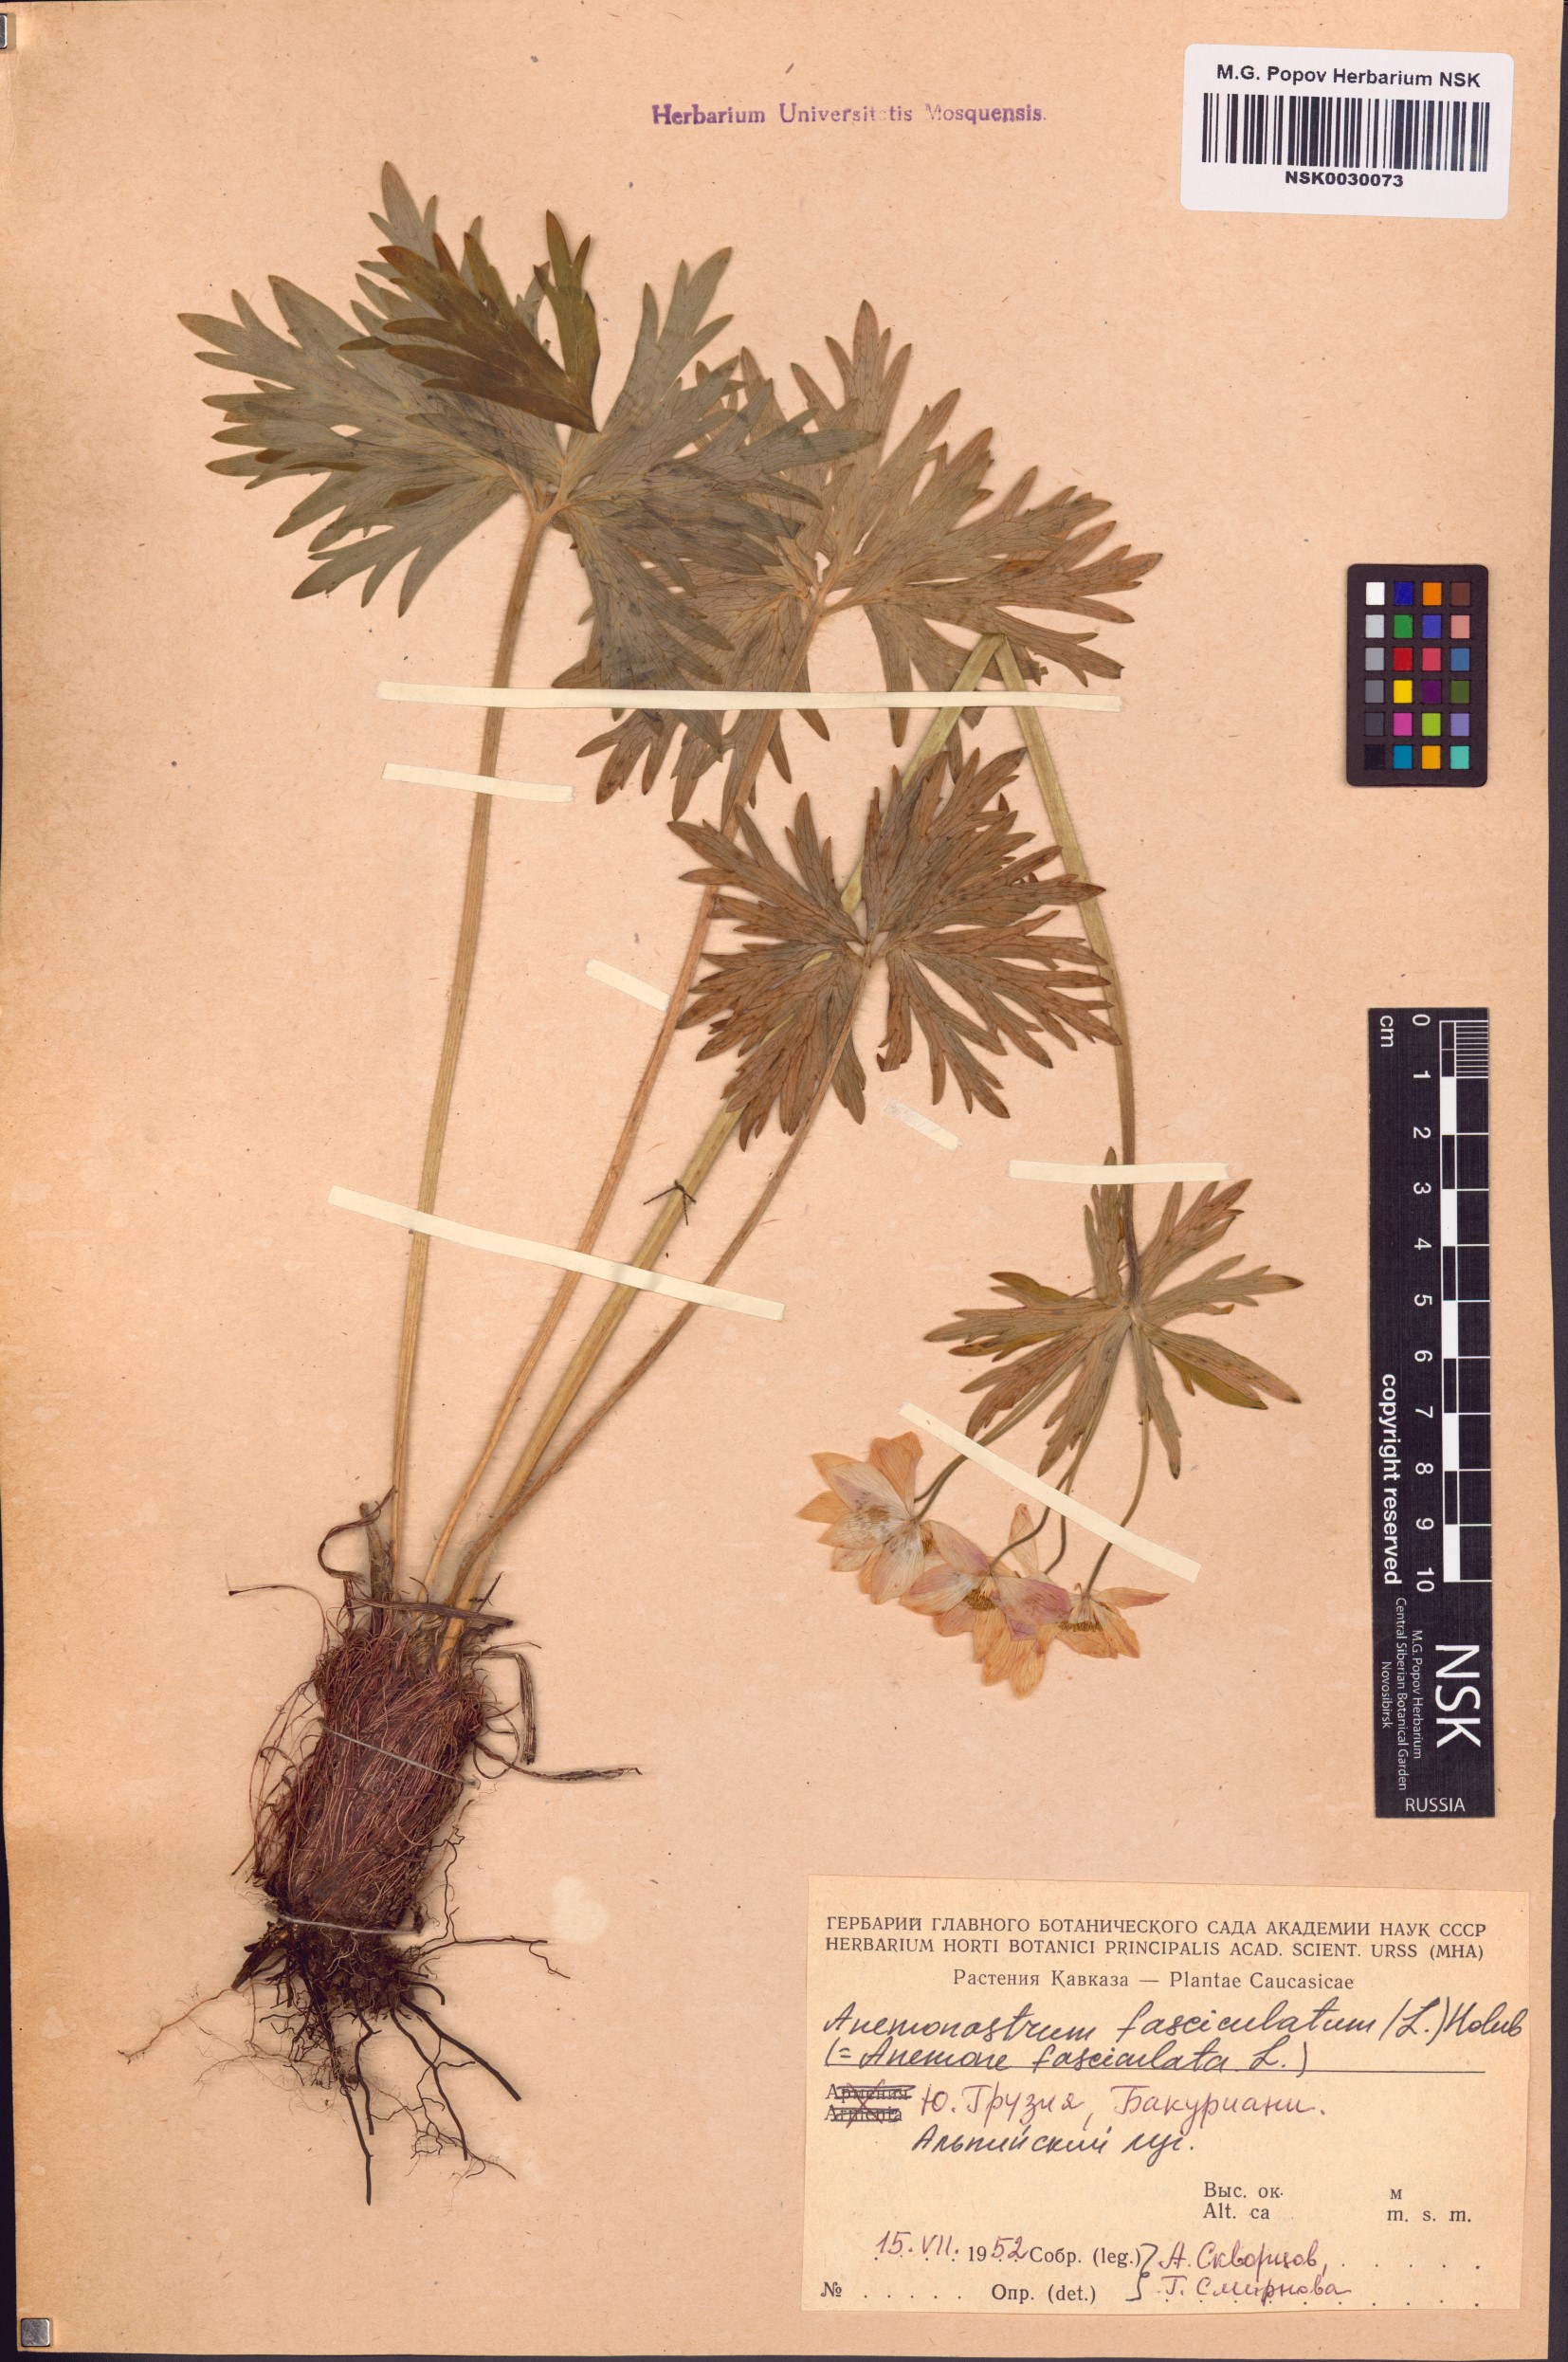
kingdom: Plantae
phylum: Tracheophyta
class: Magnoliopsida
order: Ranunculales
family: Ranunculaceae
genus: Anemonastrum
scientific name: Anemonastrum narcissiflorum
